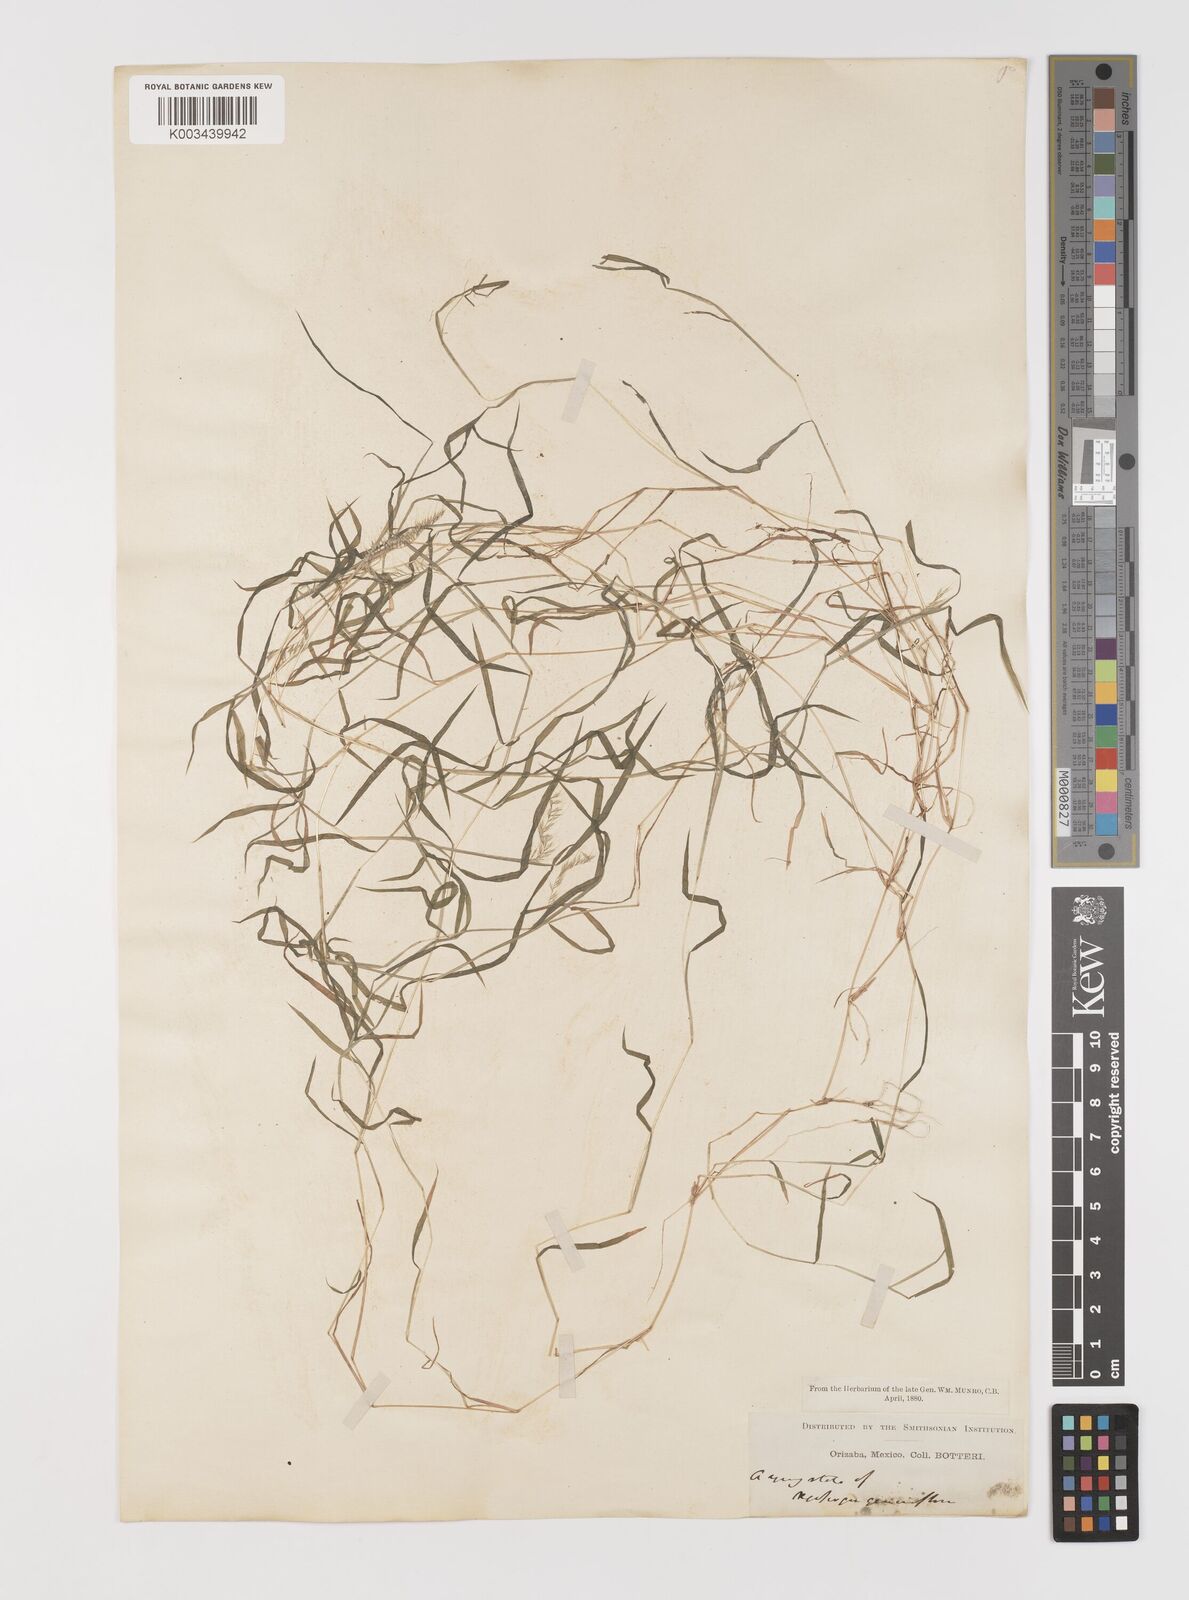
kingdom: Plantae
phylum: Tracheophyta
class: Liliopsida
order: Poales
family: Poaceae
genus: Muhlenbergia
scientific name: Muhlenbergia uniseta
